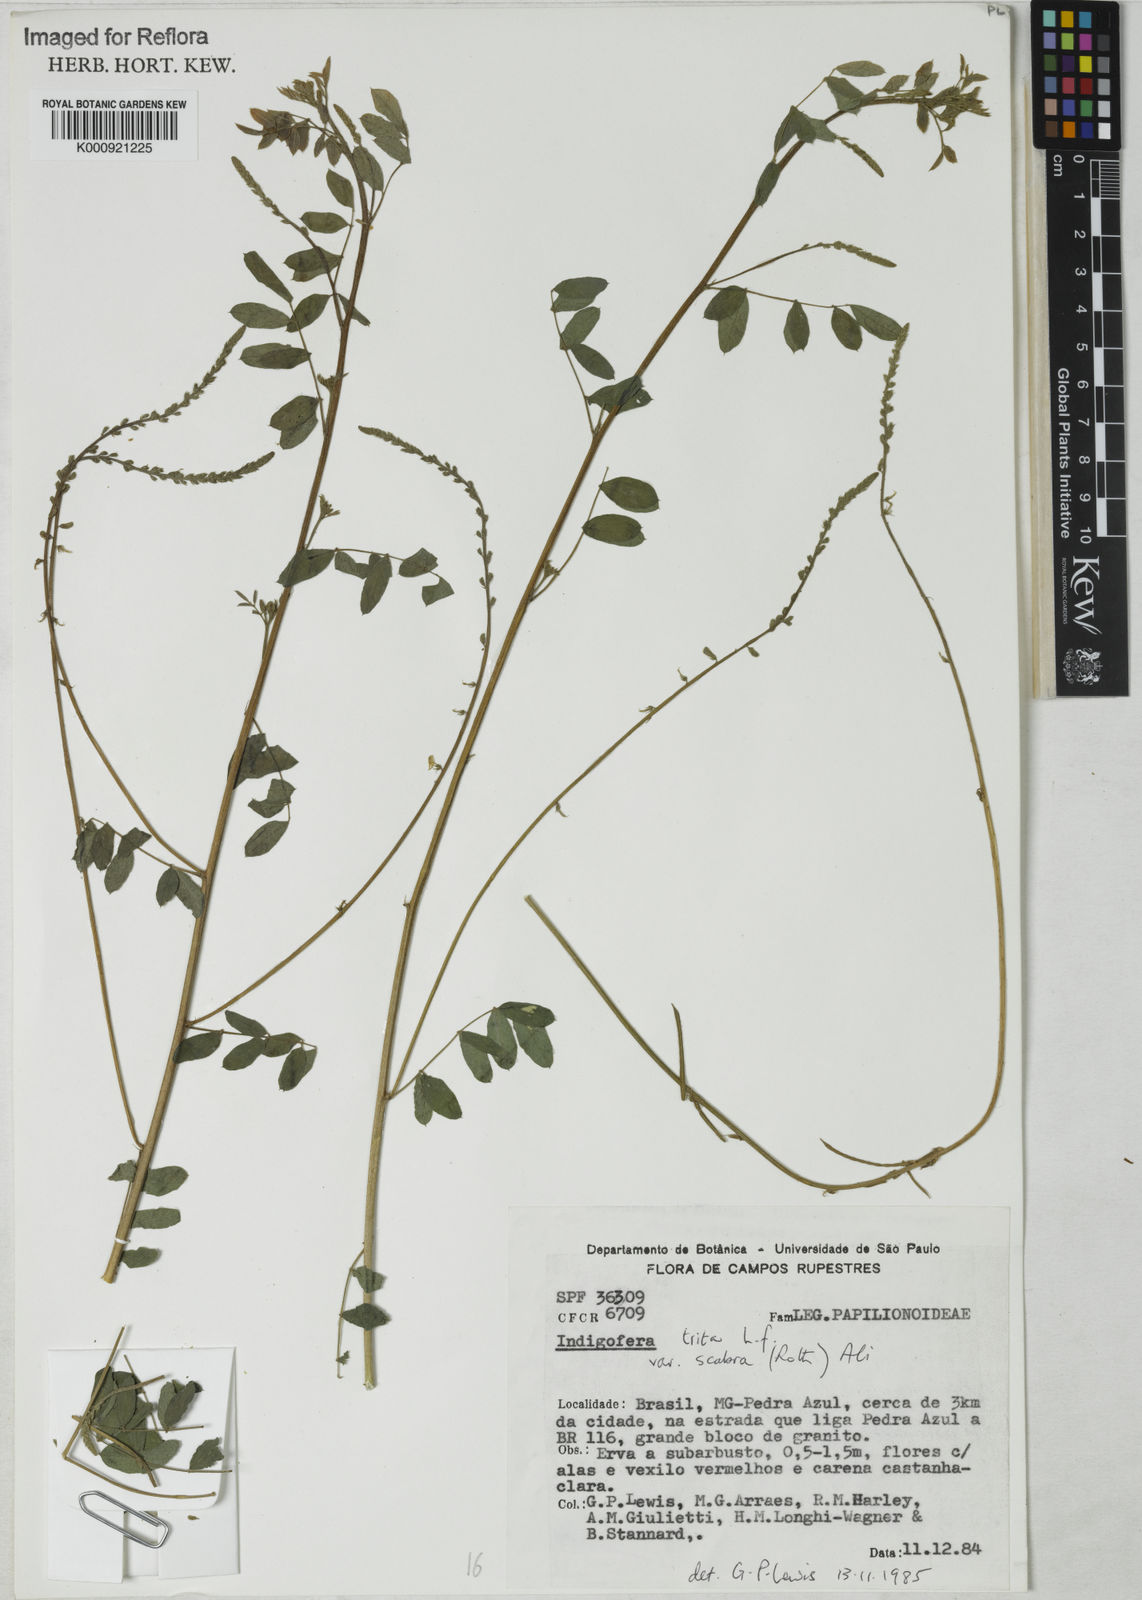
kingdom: Plantae
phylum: Tracheophyta
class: Magnoliopsida
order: Fabales
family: Fabaceae
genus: Indigofera
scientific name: Indigofera trita
